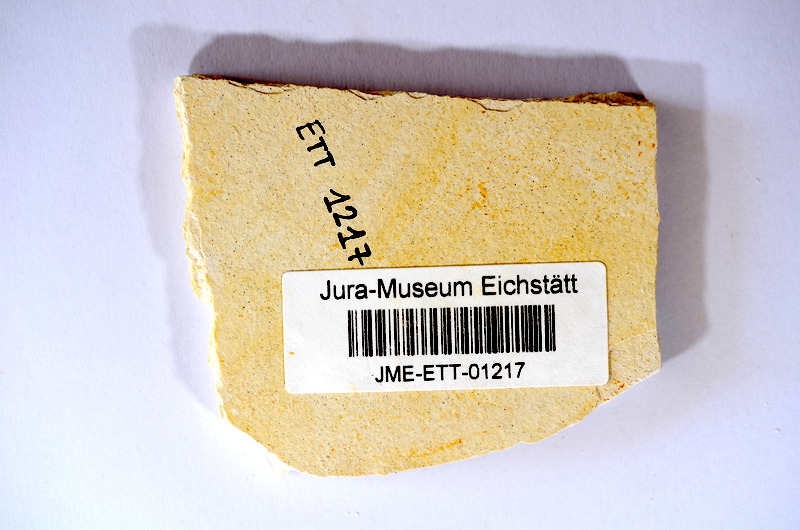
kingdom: Animalia
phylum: Chordata
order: Salmoniformes
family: Orthogonikleithridae
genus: Orthogonikleithrus
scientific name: Orthogonikleithrus hoelli
